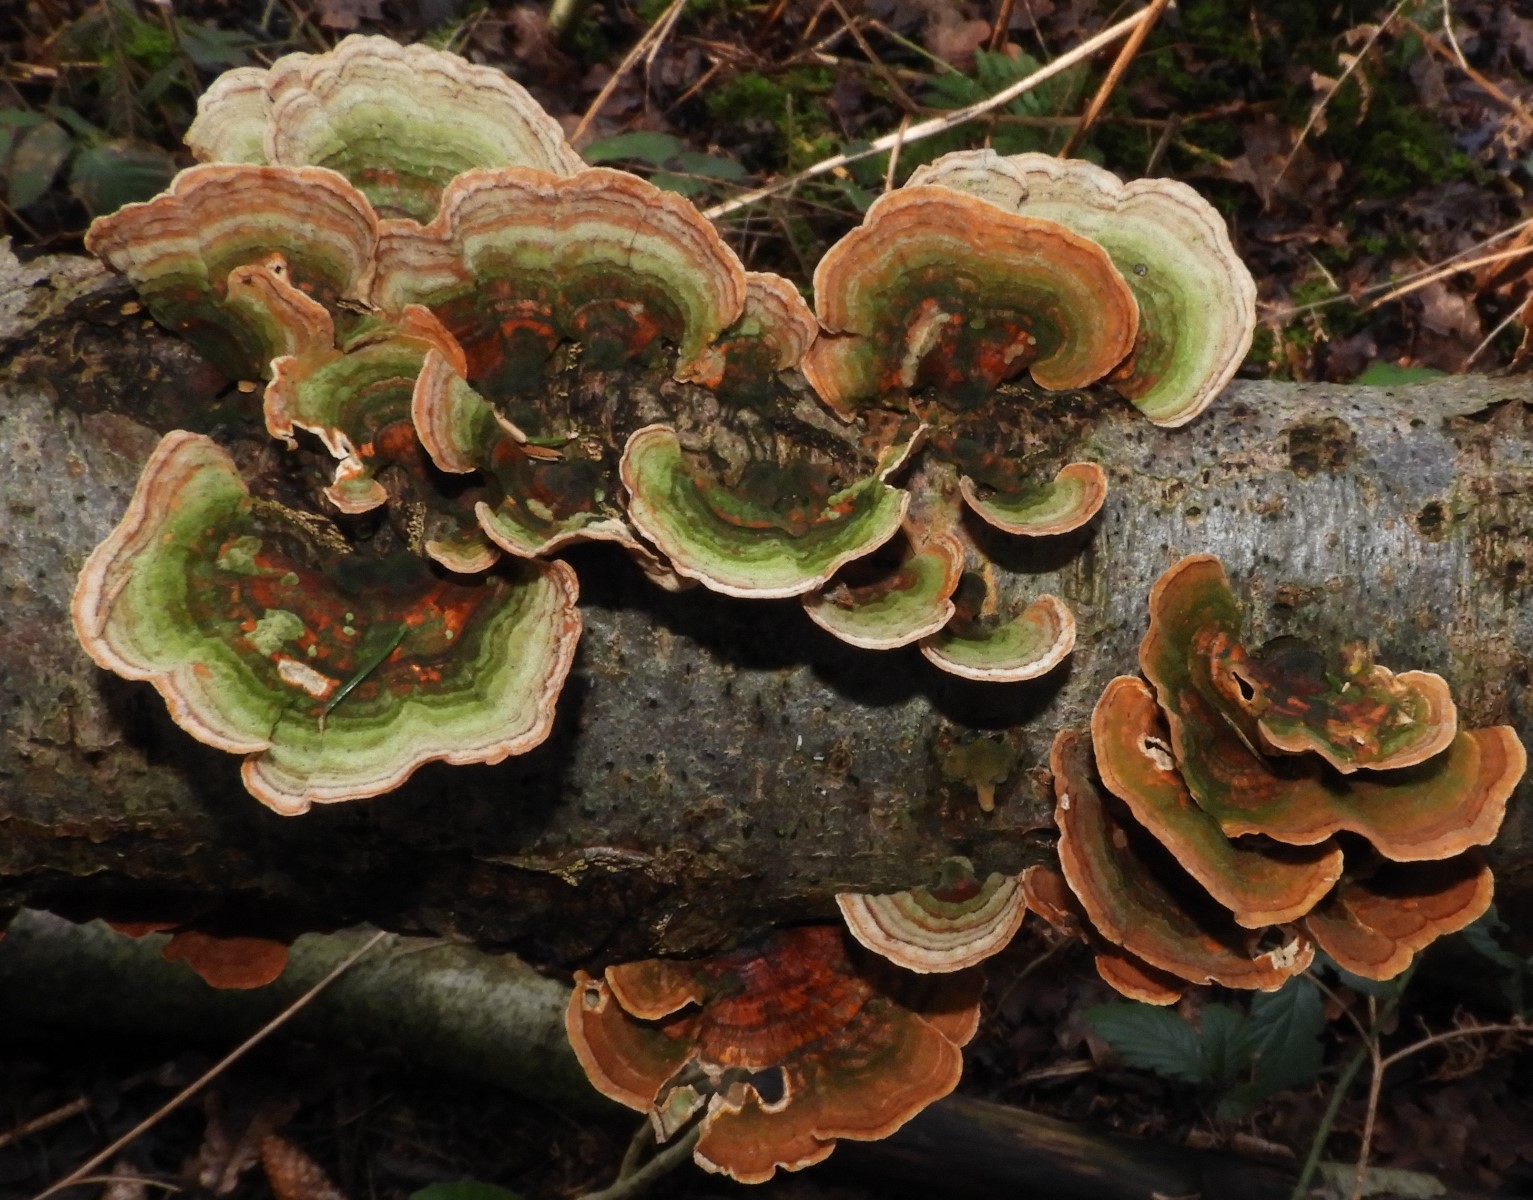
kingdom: Fungi
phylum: Basidiomycota
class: Agaricomycetes
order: Russulales
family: Stereaceae
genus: Stereum
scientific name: Stereum subtomentosum
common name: smuk lædersvamp
